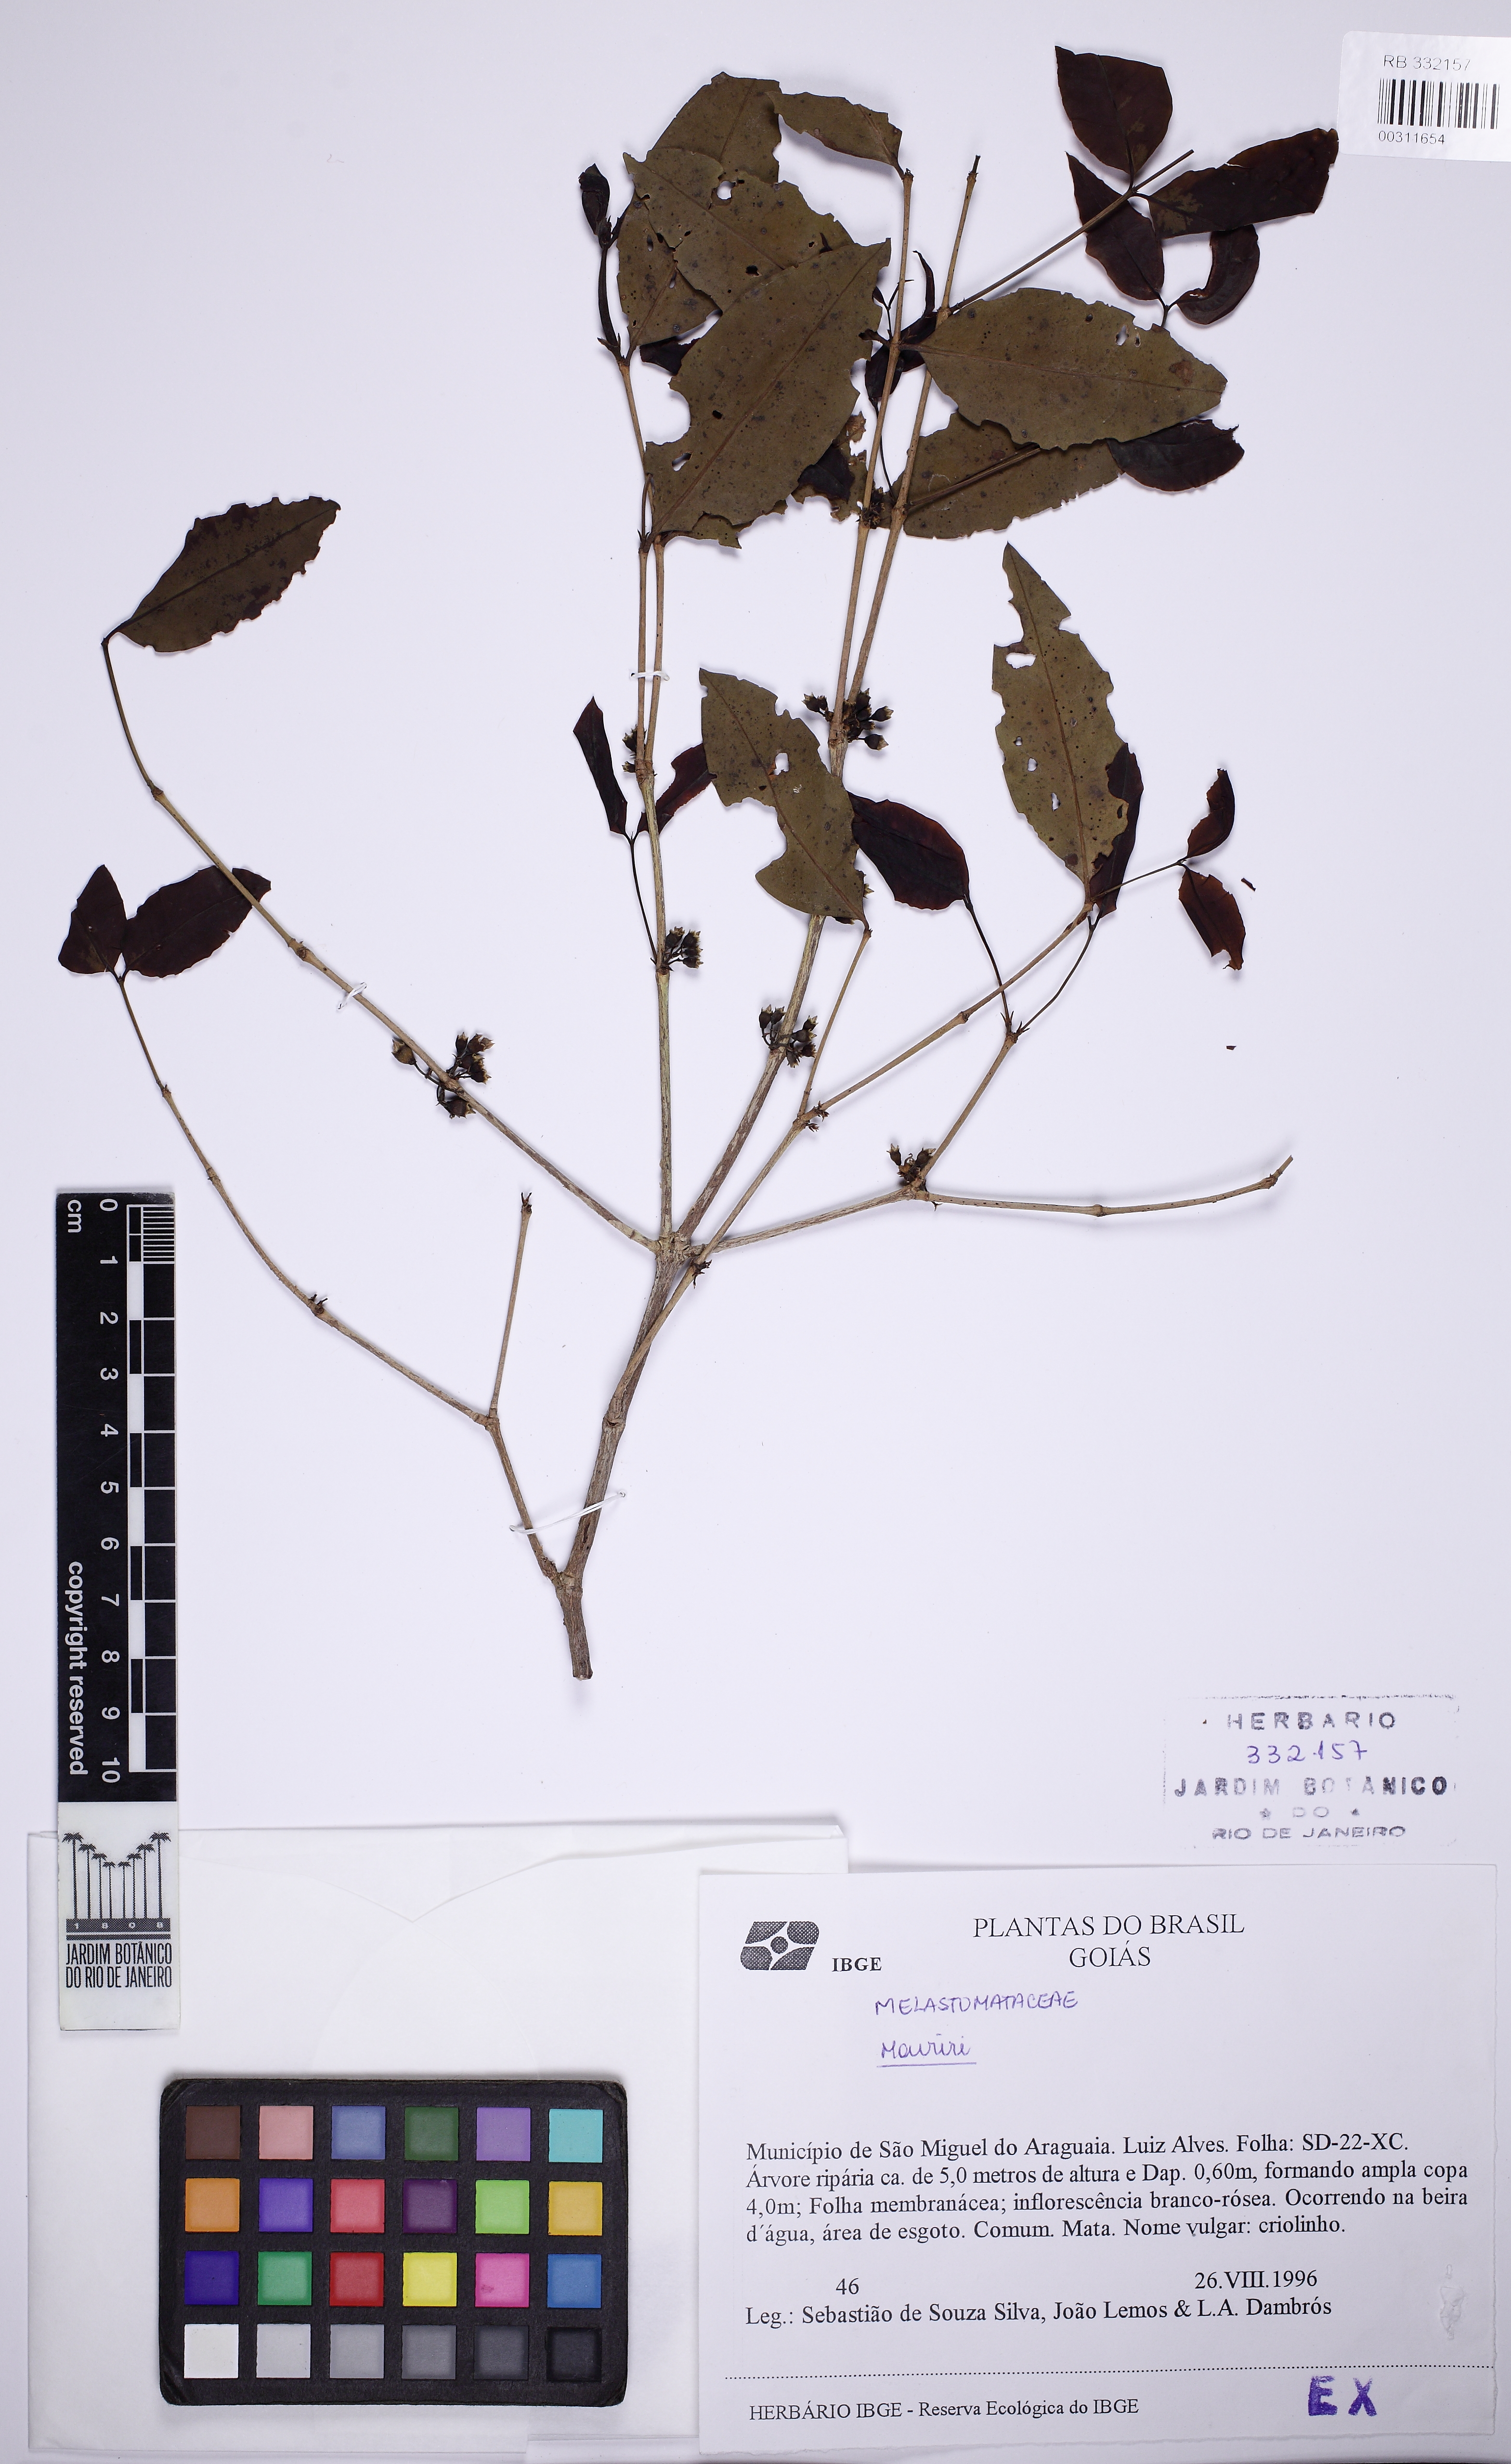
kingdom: Plantae
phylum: Tracheophyta
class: Magnoliopsida
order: Myrtales
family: Melastomataceae
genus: Mouriri
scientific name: Mouriri guianensis
